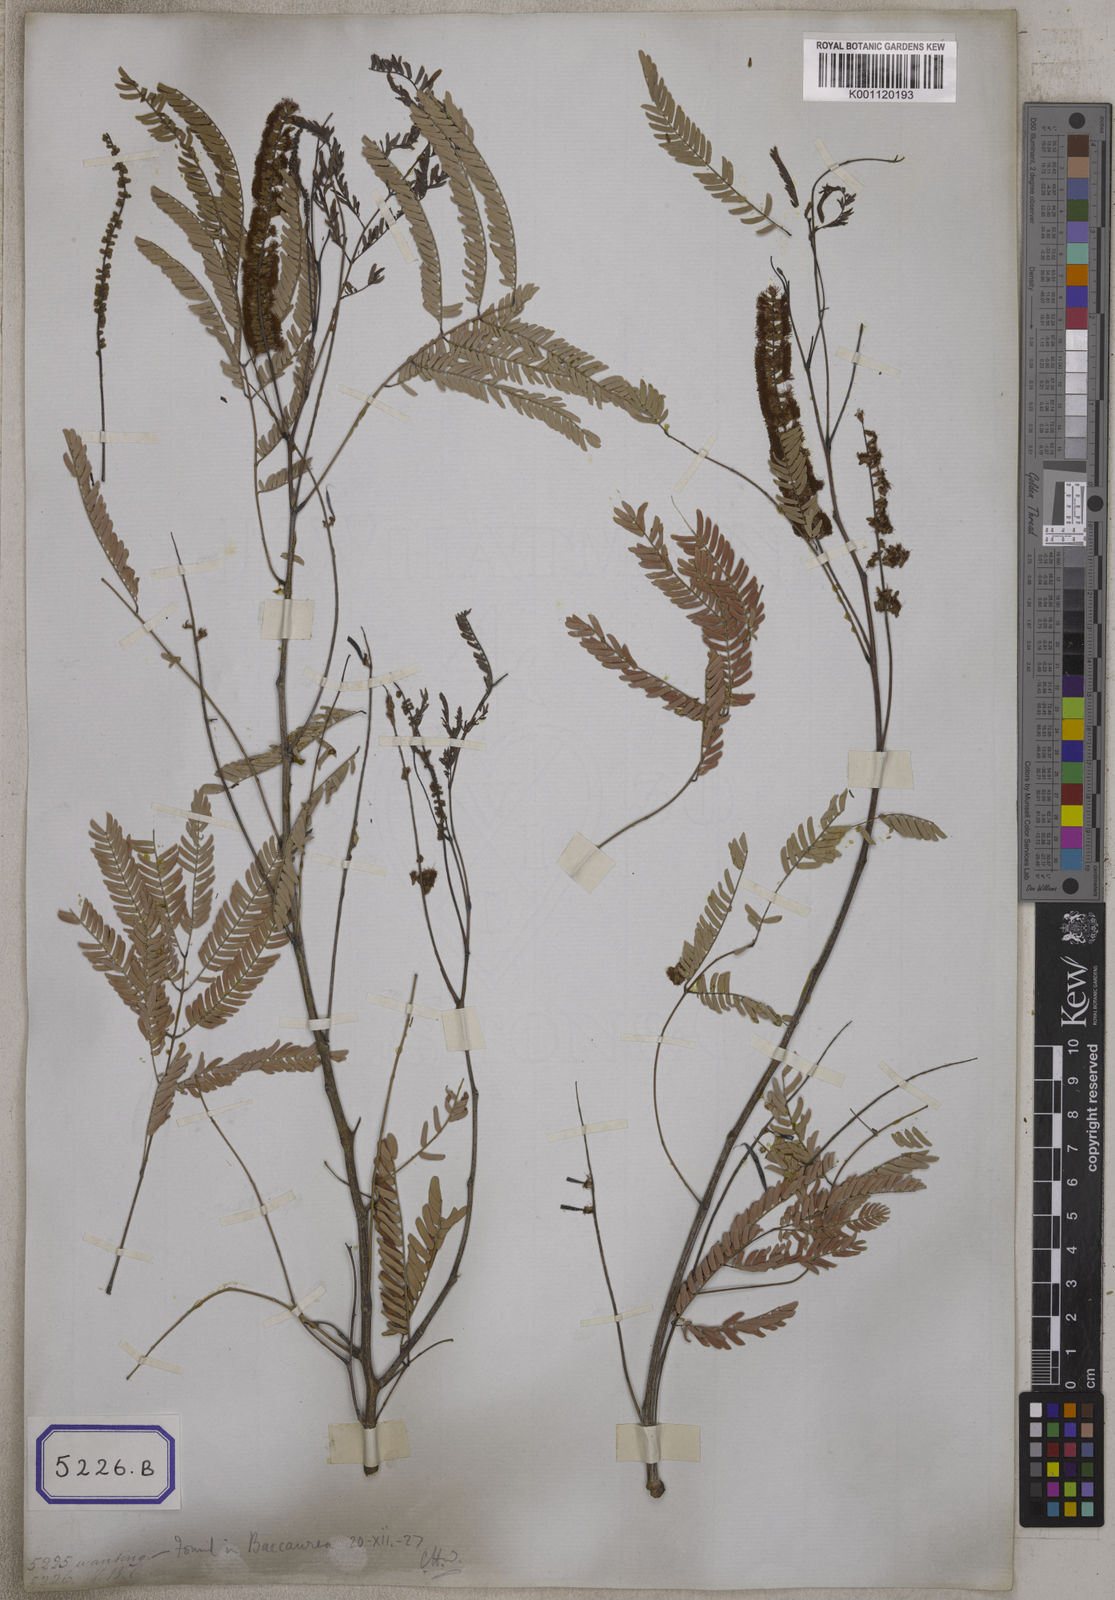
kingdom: Plantae
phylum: Tracheophyta
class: Magnoliopsida
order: Fabales
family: Fabaceae
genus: Senegalia
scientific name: Senegalia ferruginea
